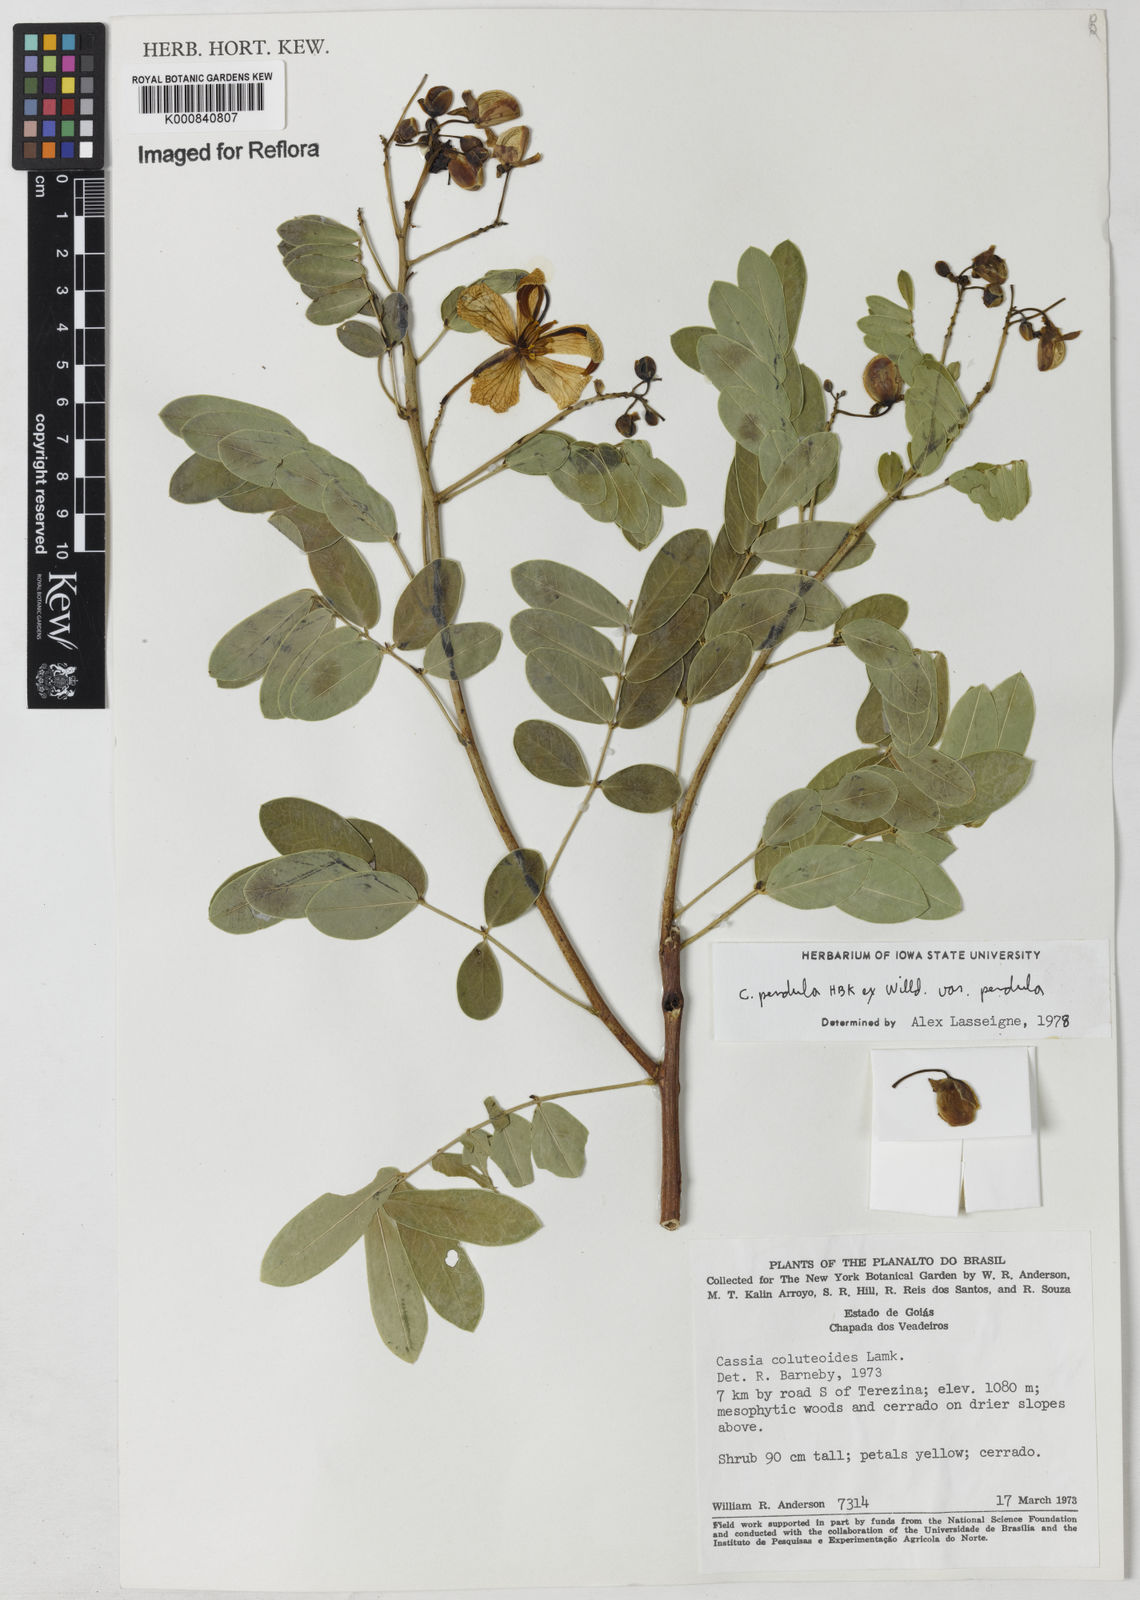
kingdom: Plantae
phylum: Tracheophyta
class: Magnoliopsida
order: Fabales
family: Fabaceae
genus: Senna
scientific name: Senna pendula
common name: Easter cassia
